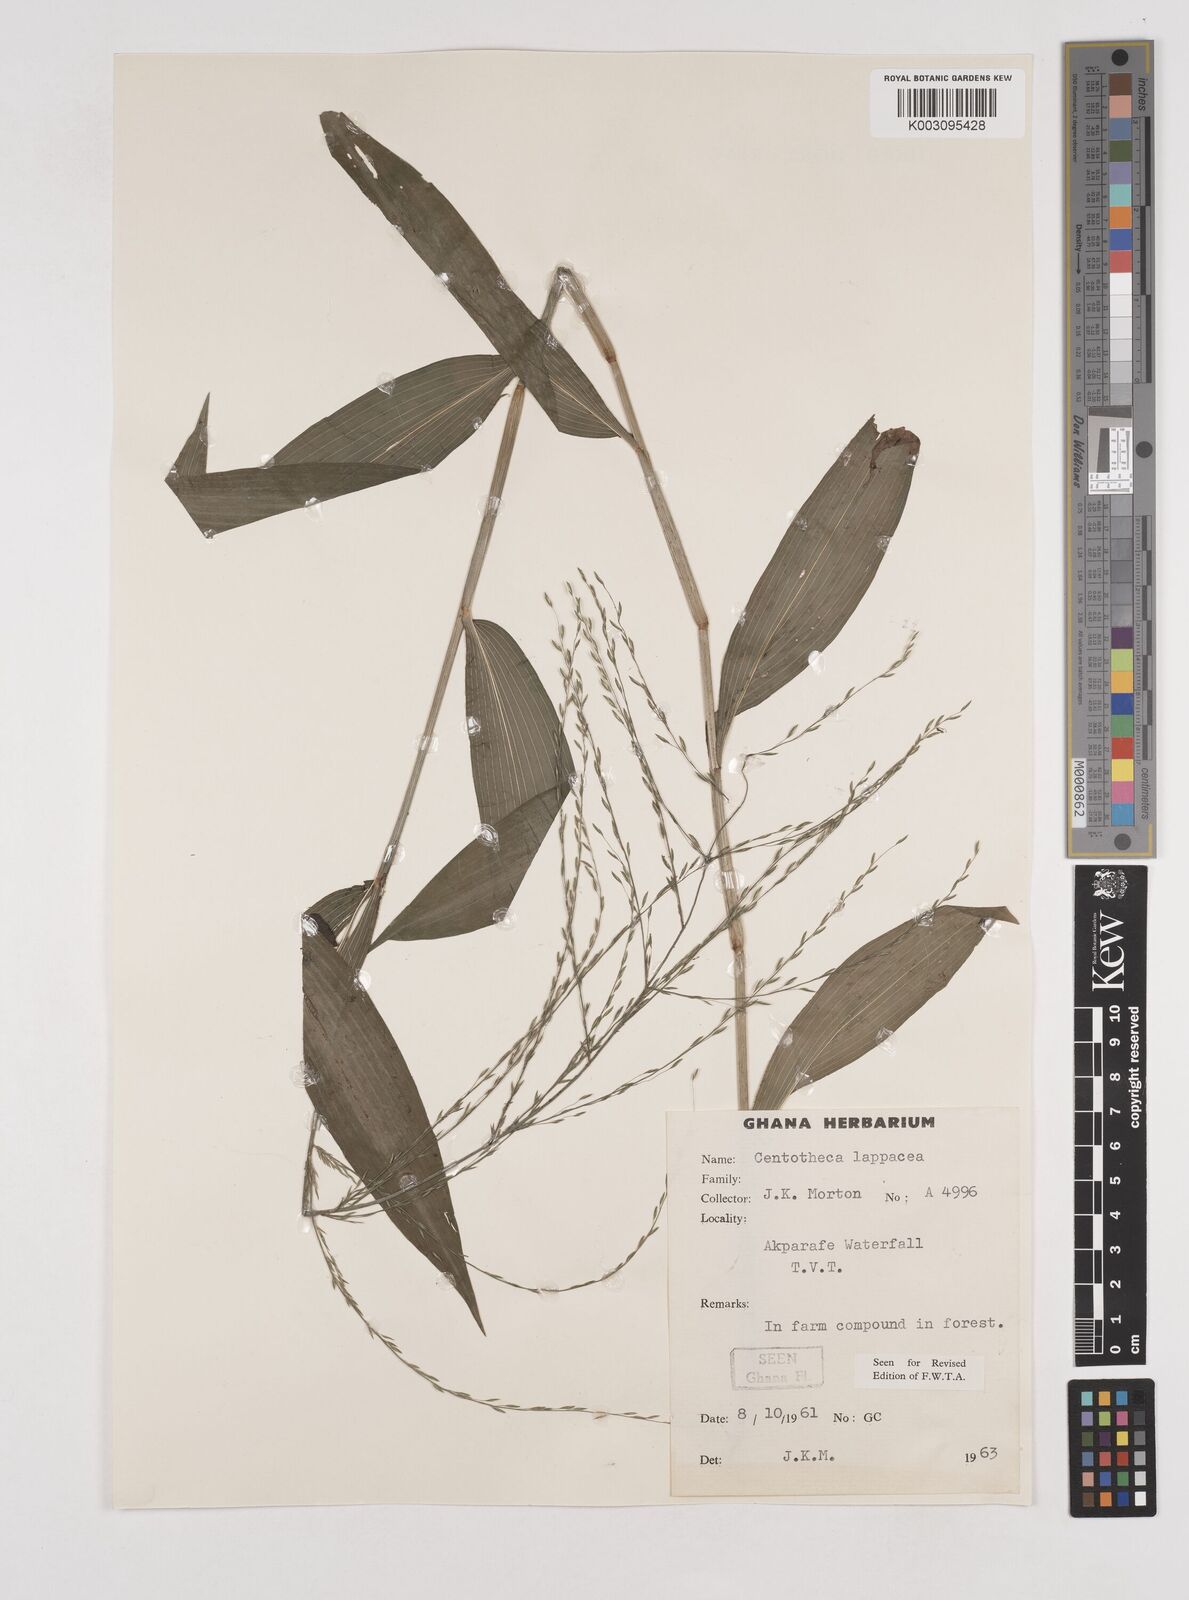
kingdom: Plantae
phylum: Tracheophyta
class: Liliopsida
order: Poales
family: Poaceae
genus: Centotheca
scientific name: Centotheca lappacea
